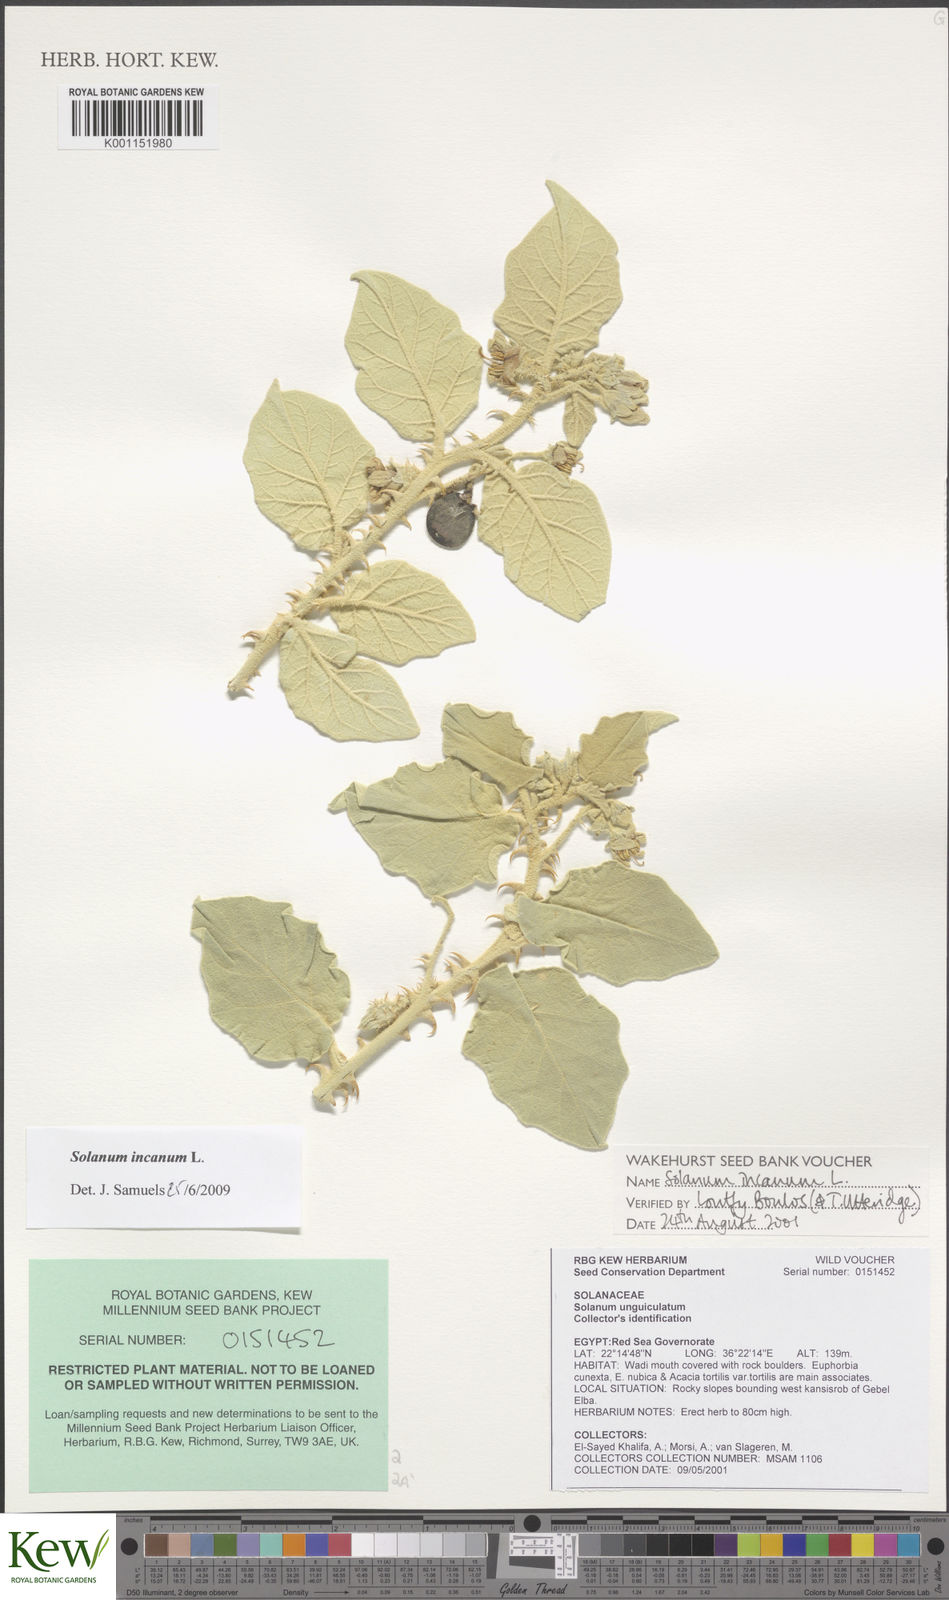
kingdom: Plantae
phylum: Tracheophyta
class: Magnoliopsida
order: Solanales
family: Solanaceae
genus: Solanum
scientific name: Solanum incanum
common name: Bitter apple
